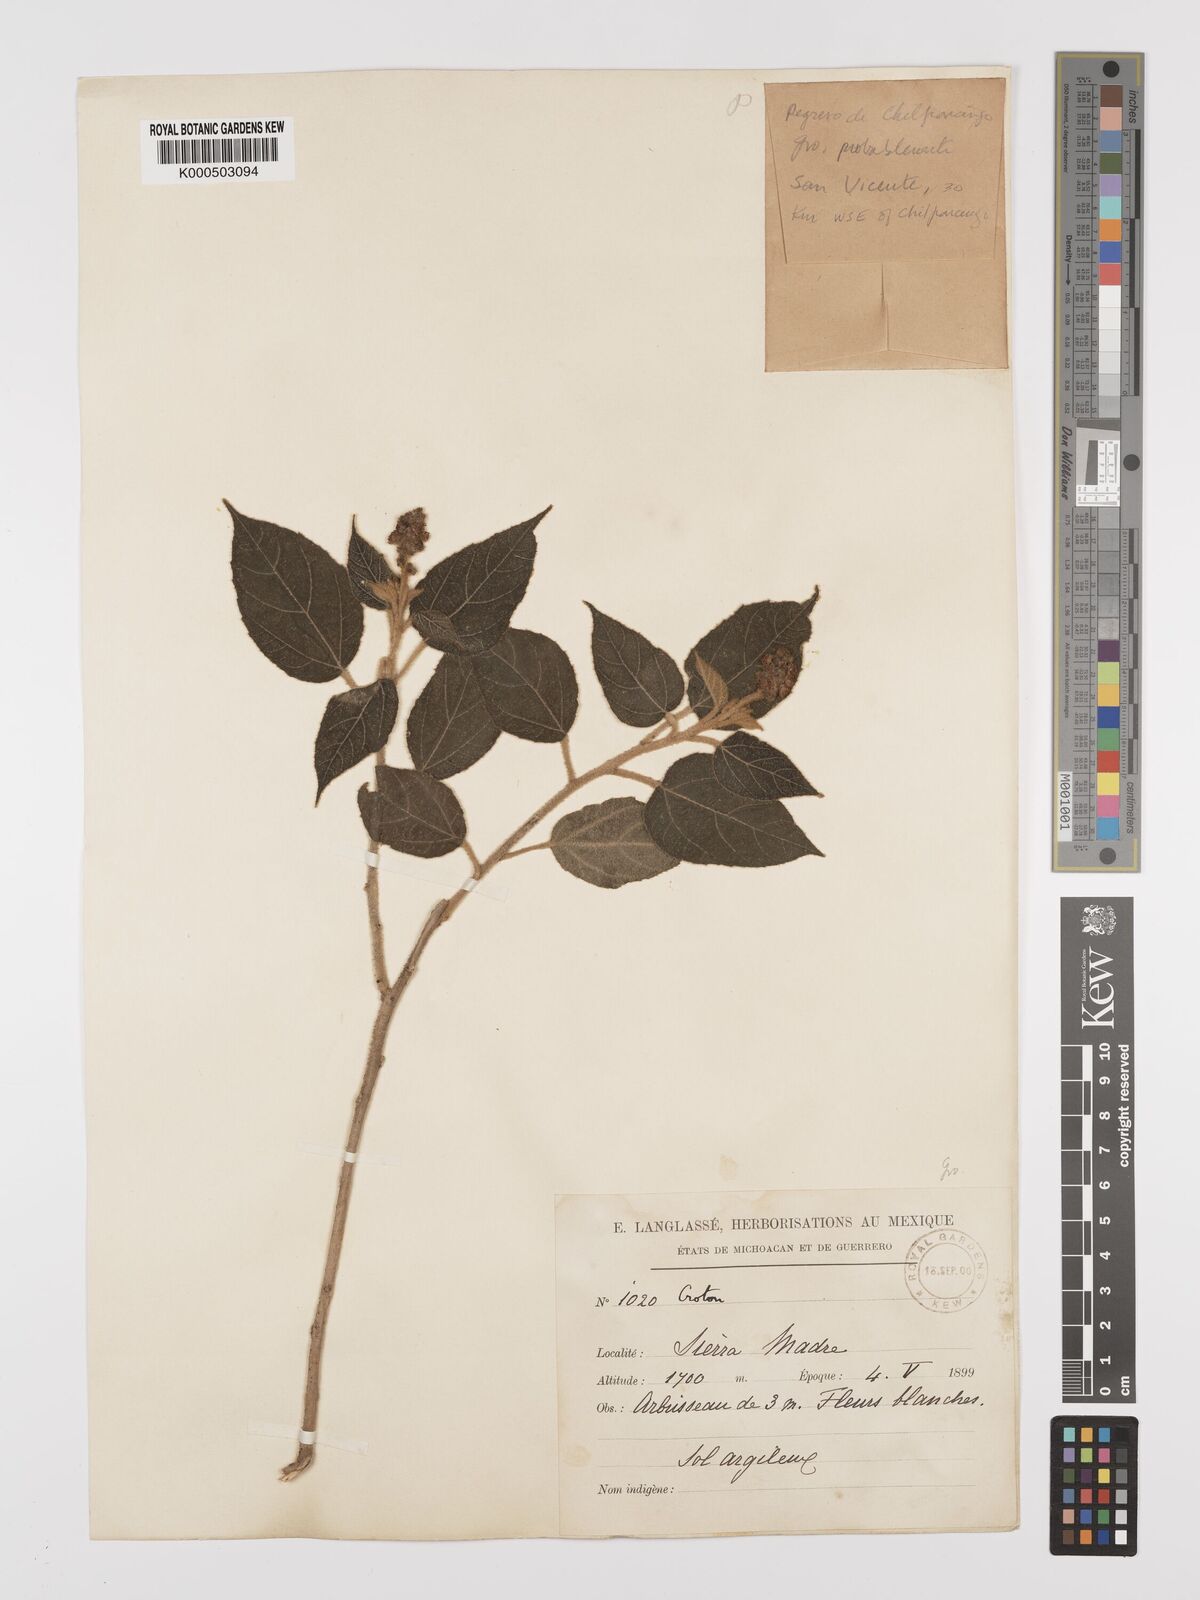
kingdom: Plantae
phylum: Tracheophyta
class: Magnoliopsida
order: Malpighiales
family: Euphorbiaceae
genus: Croton
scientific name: Croton
